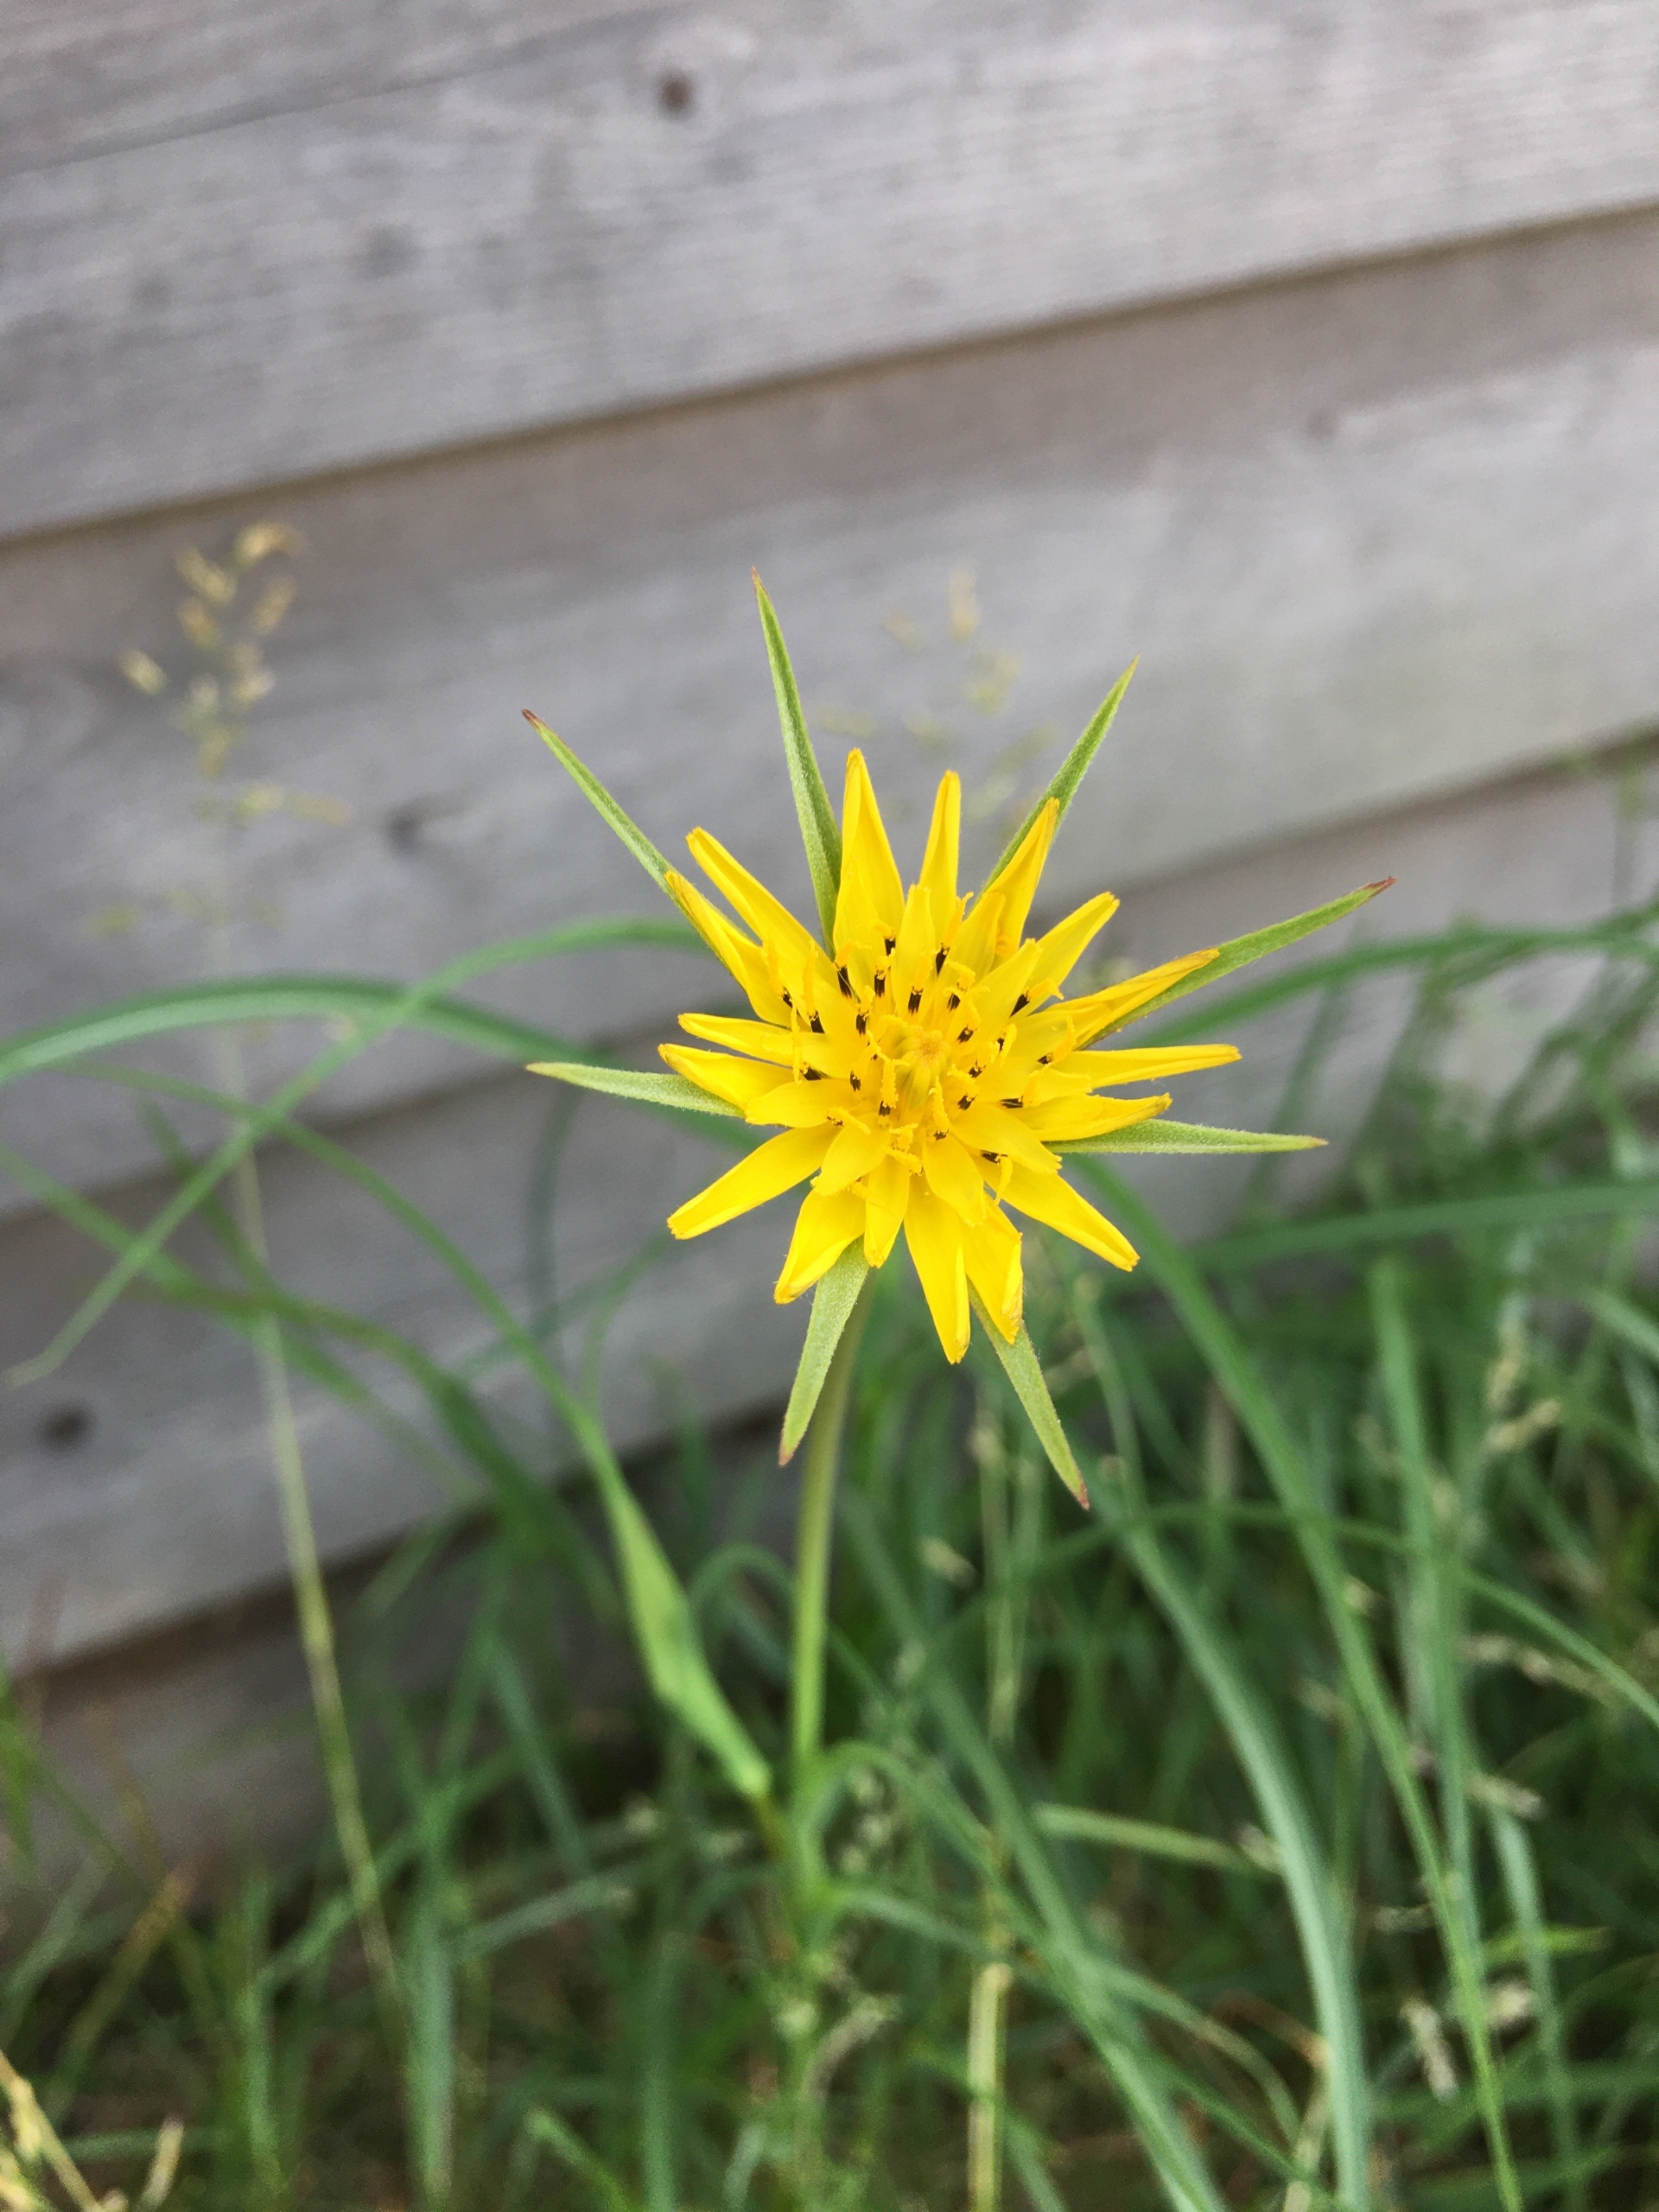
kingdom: Plantae
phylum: Tracheophyta
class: Magnoliopsida
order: Asterales
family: Asteraceae
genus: Tragopogon
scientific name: Tragopogon minor
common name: Småkronet gedeskæg
